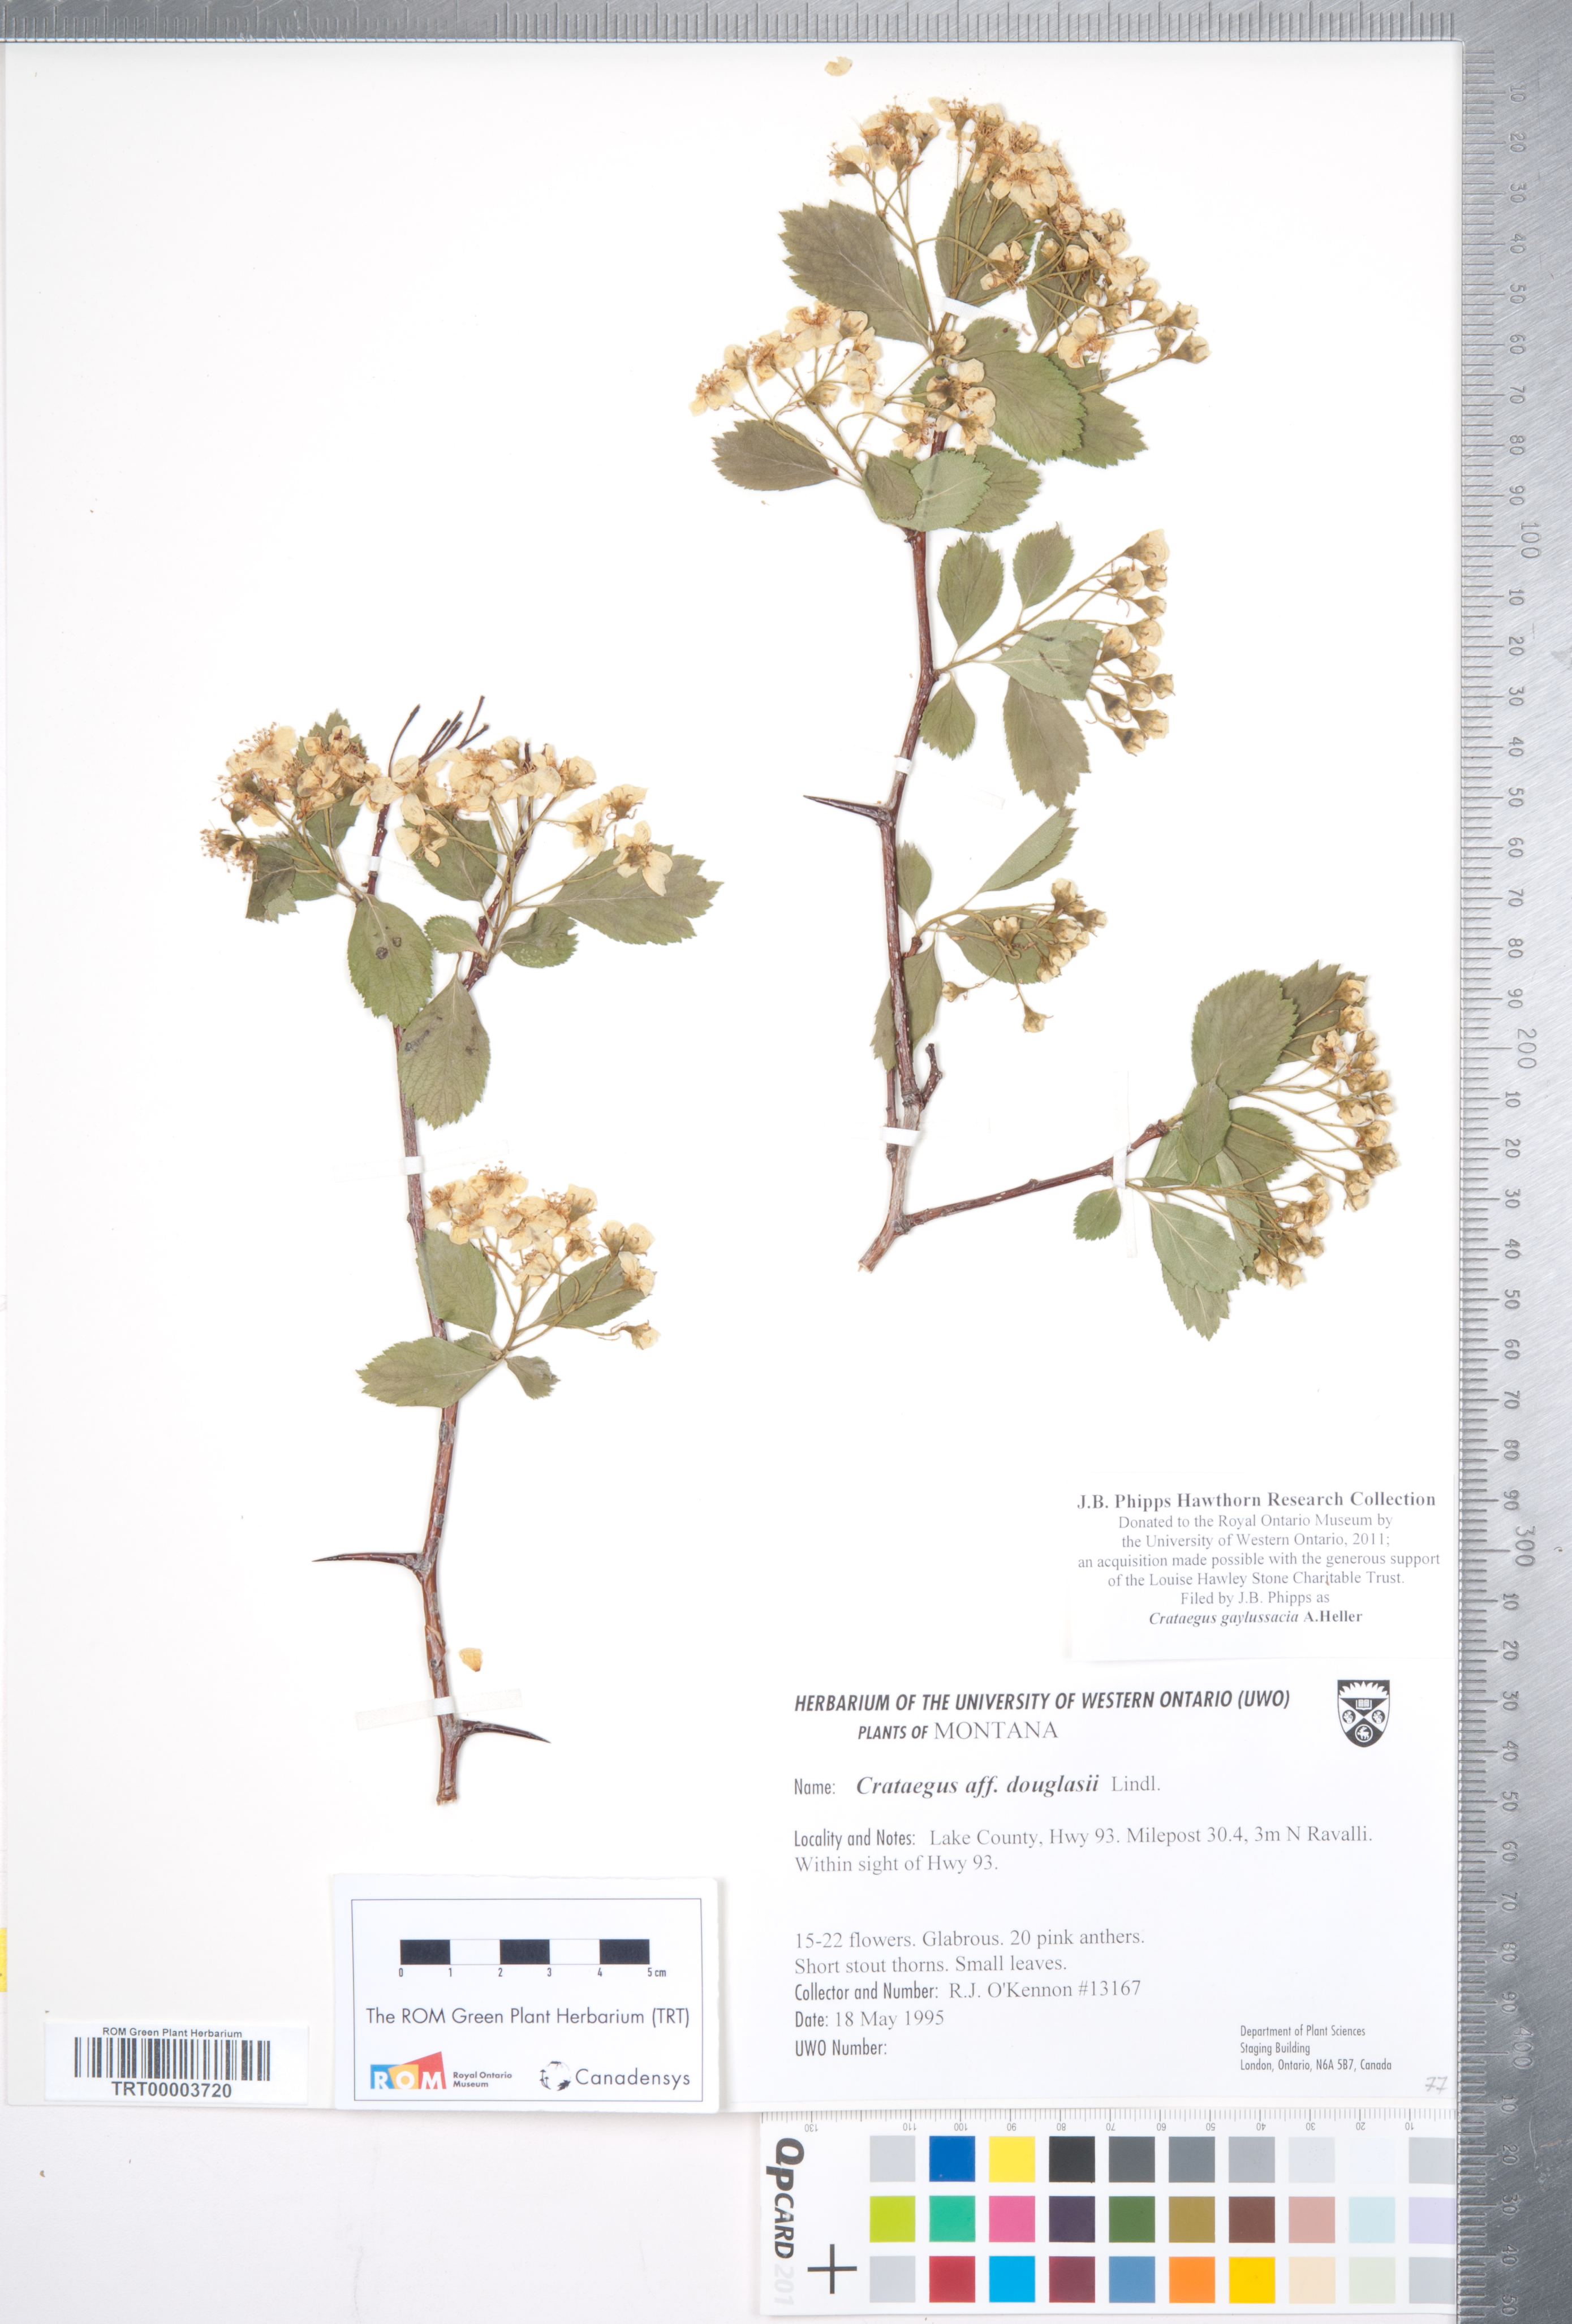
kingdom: Plantae
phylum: Tracheophyta
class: Magnoliopsida
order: Rosales
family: Rosaceae
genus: Crataegus
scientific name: Crataegus gaylussacia
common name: Huckleberry hawthorn
